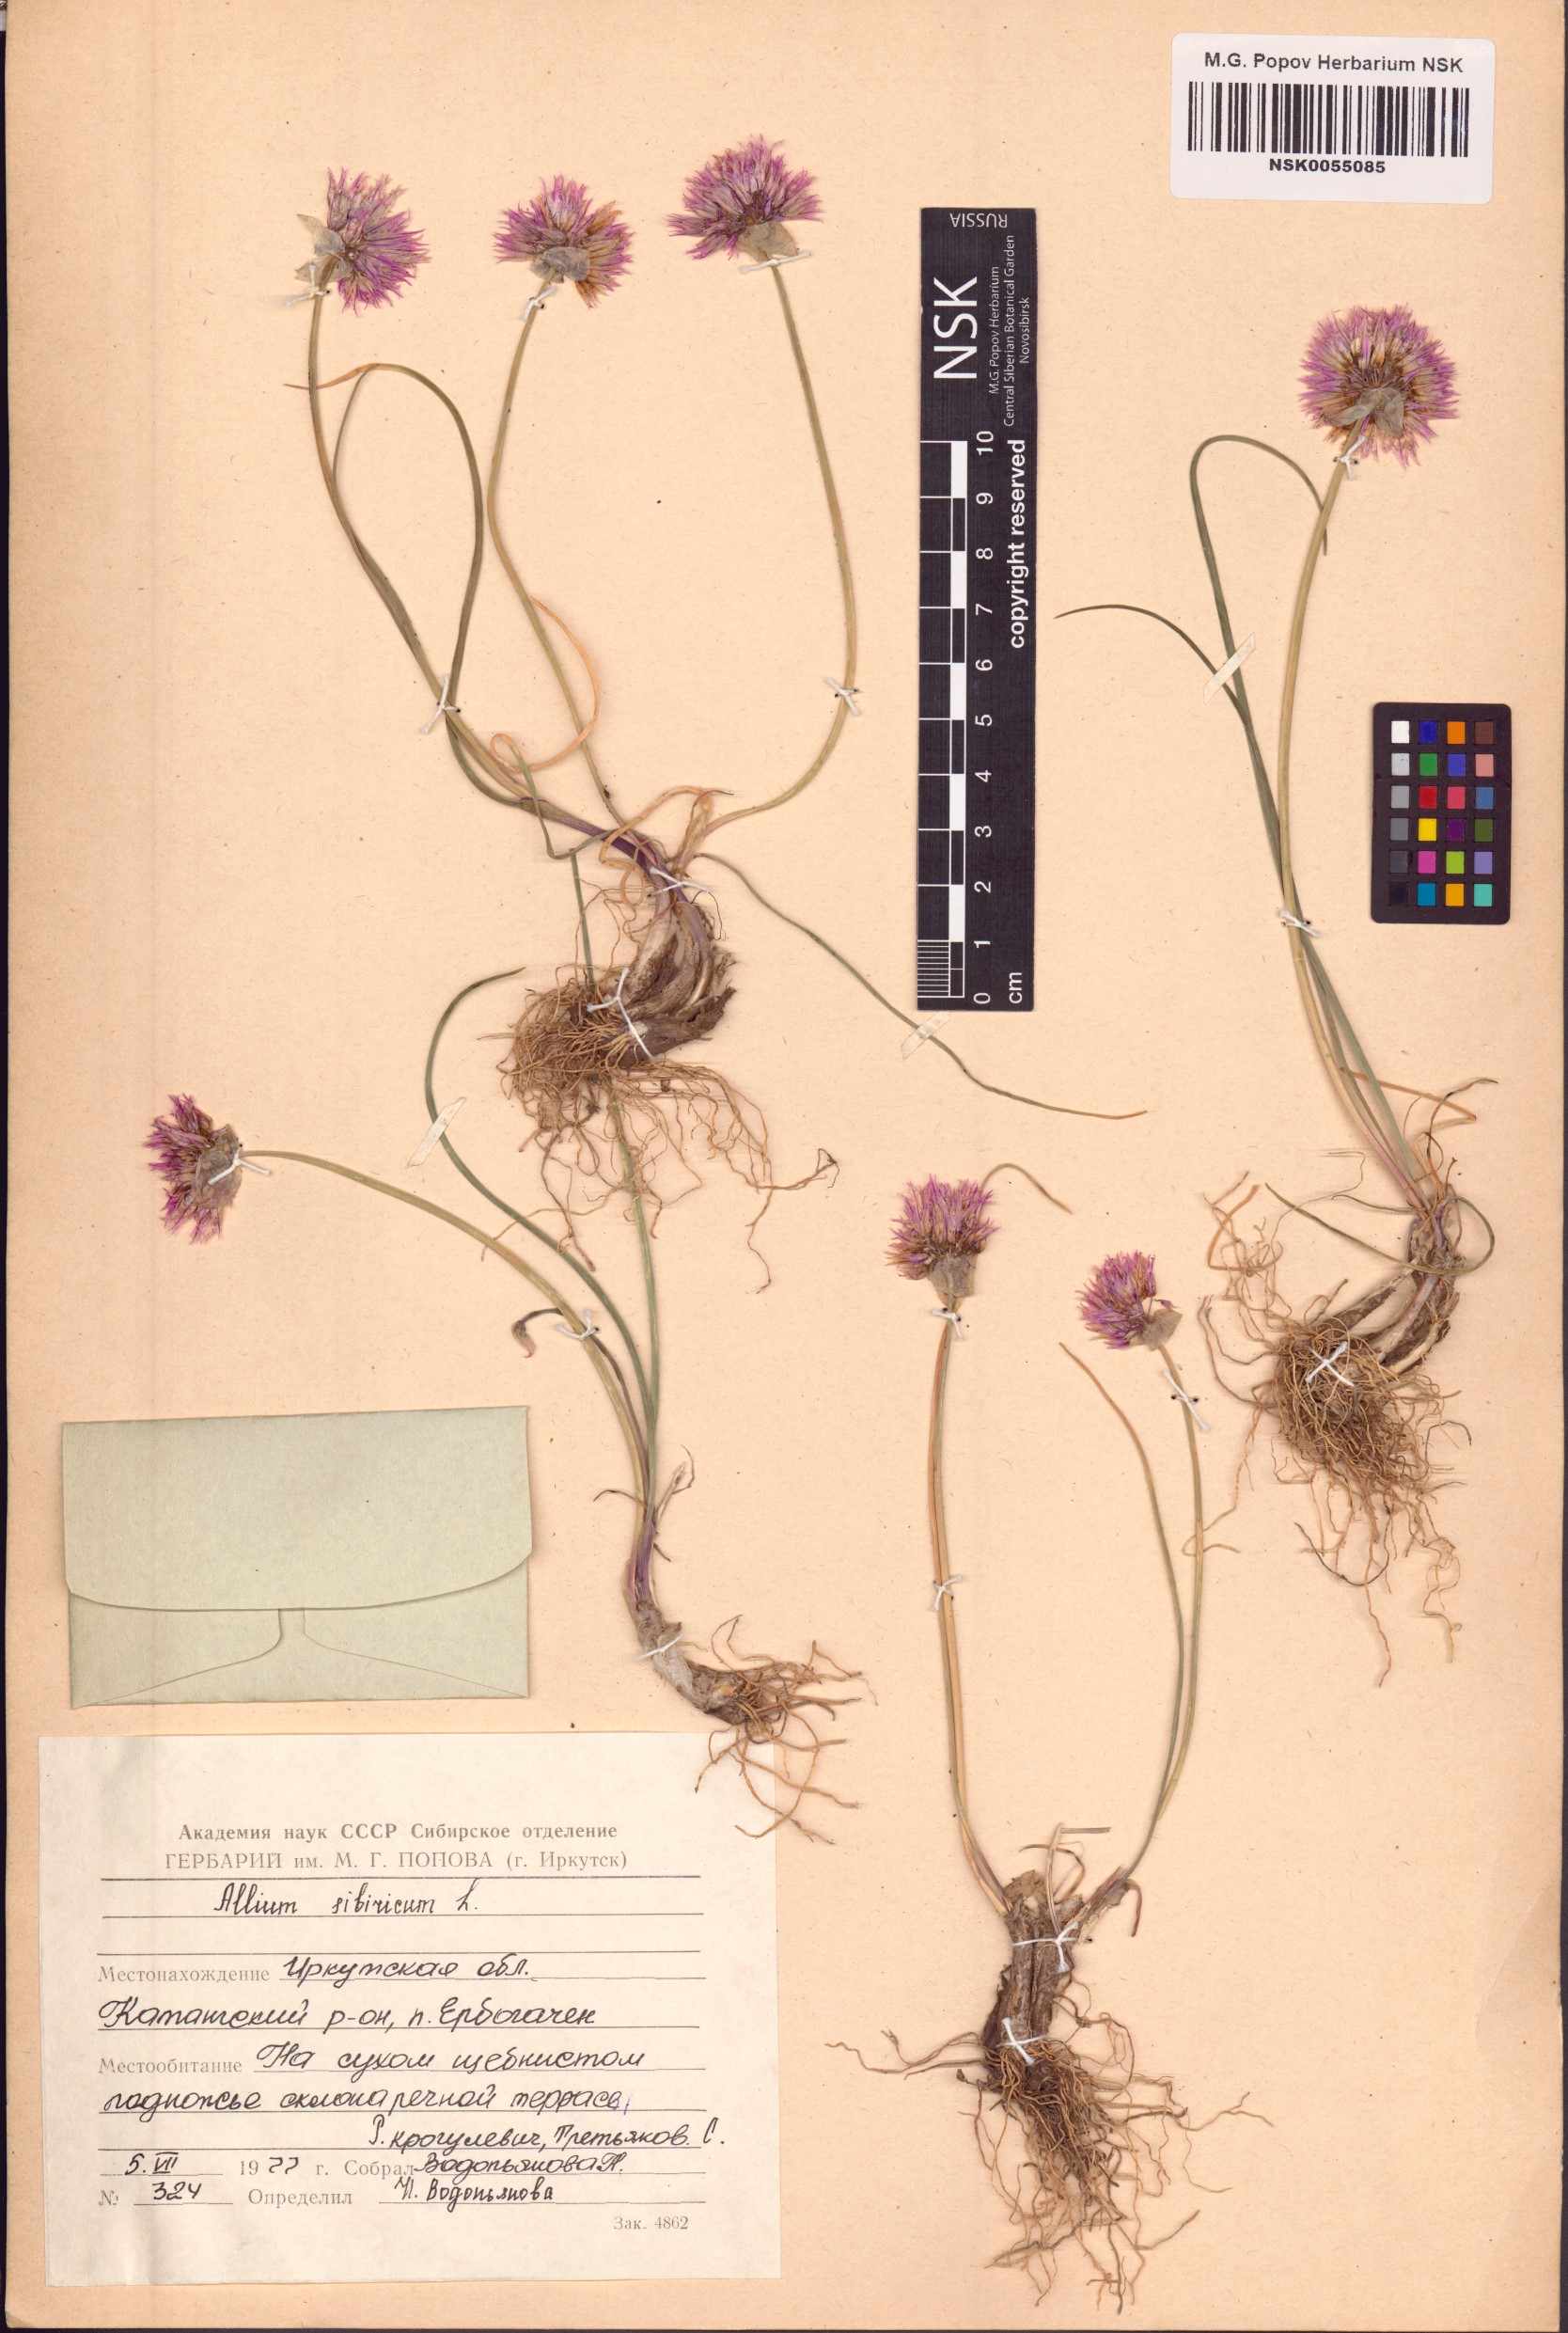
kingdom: Plantae
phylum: Tracheophyta
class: Liliopsida
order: Asparagales
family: Amaryllidaceae
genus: Allium
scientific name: Allium schoenoprasum
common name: Chives
